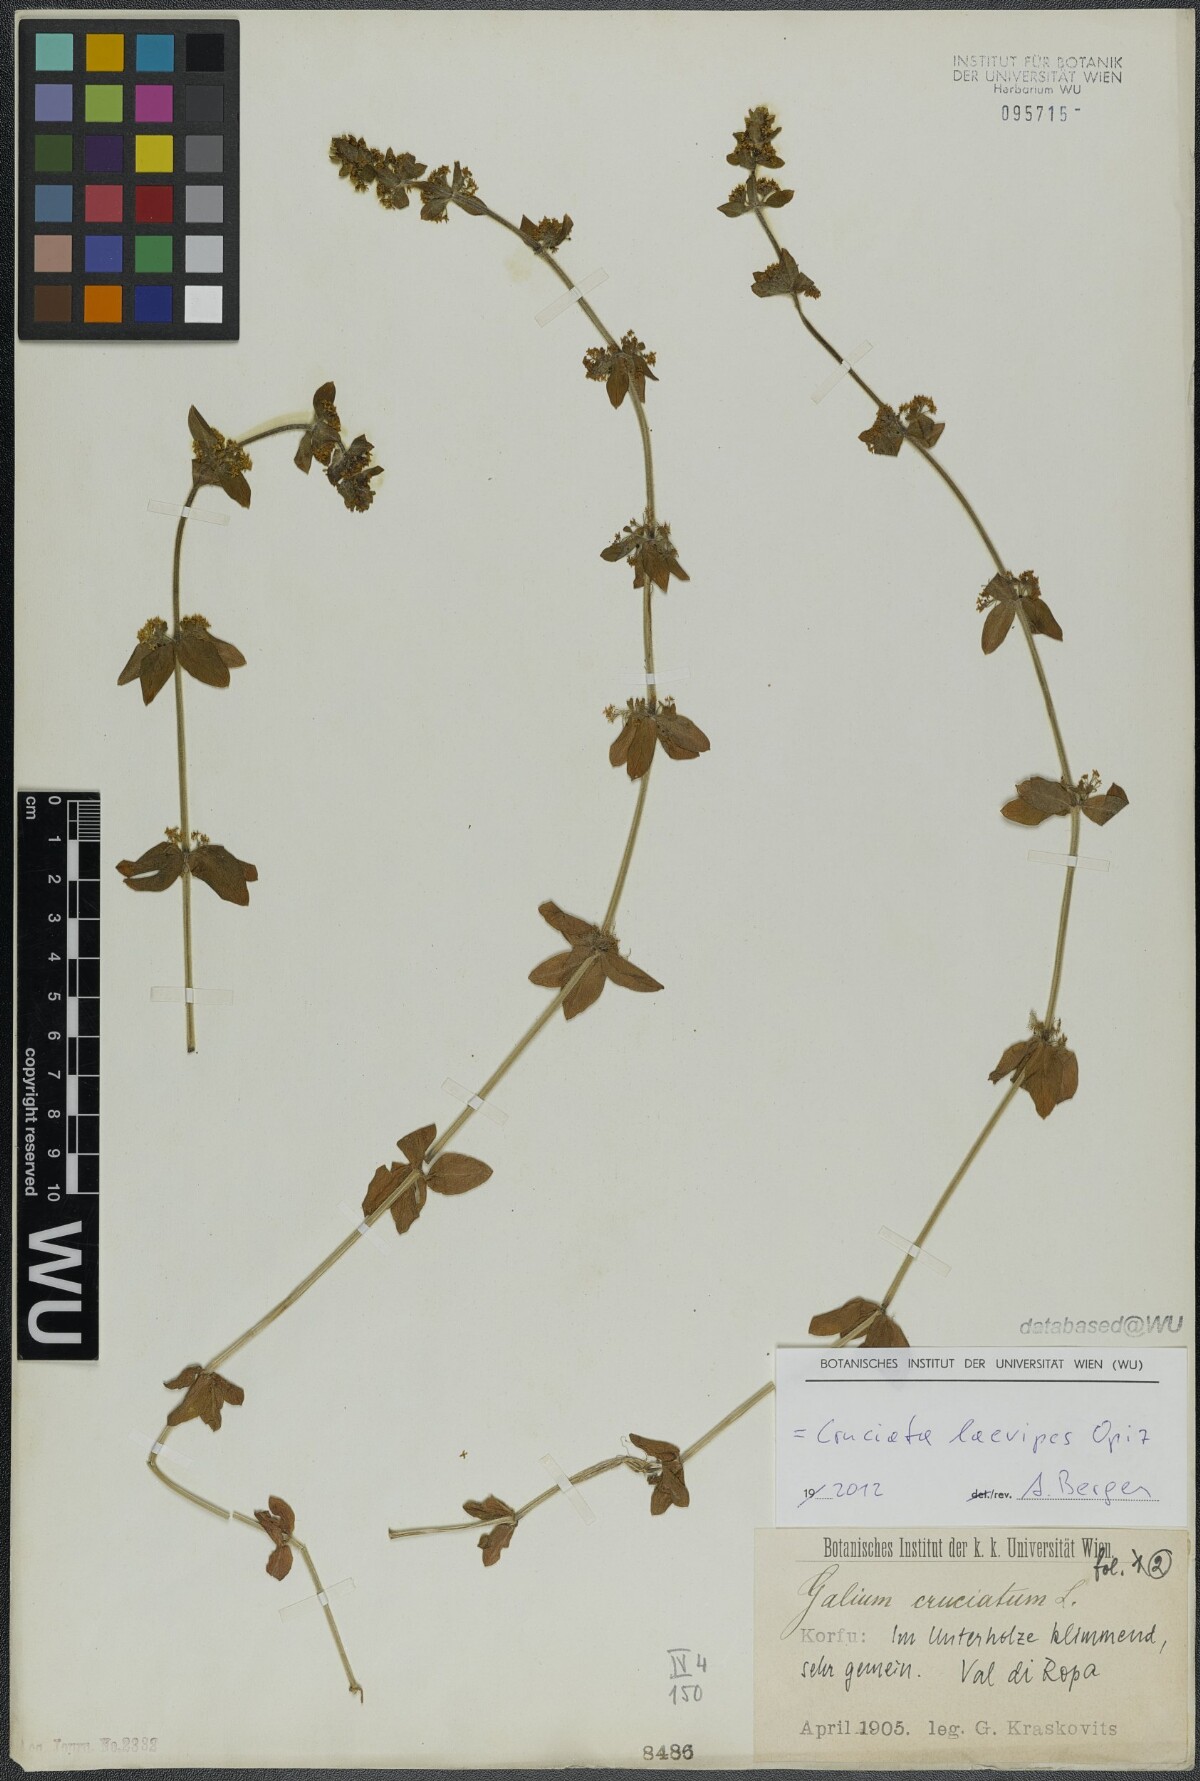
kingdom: Plantae
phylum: Tracheophyta
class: Magnoliopsida
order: Gentianales
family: Rubiaceae
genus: Cruciata
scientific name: Cruciata laevipes
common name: Crosswort
